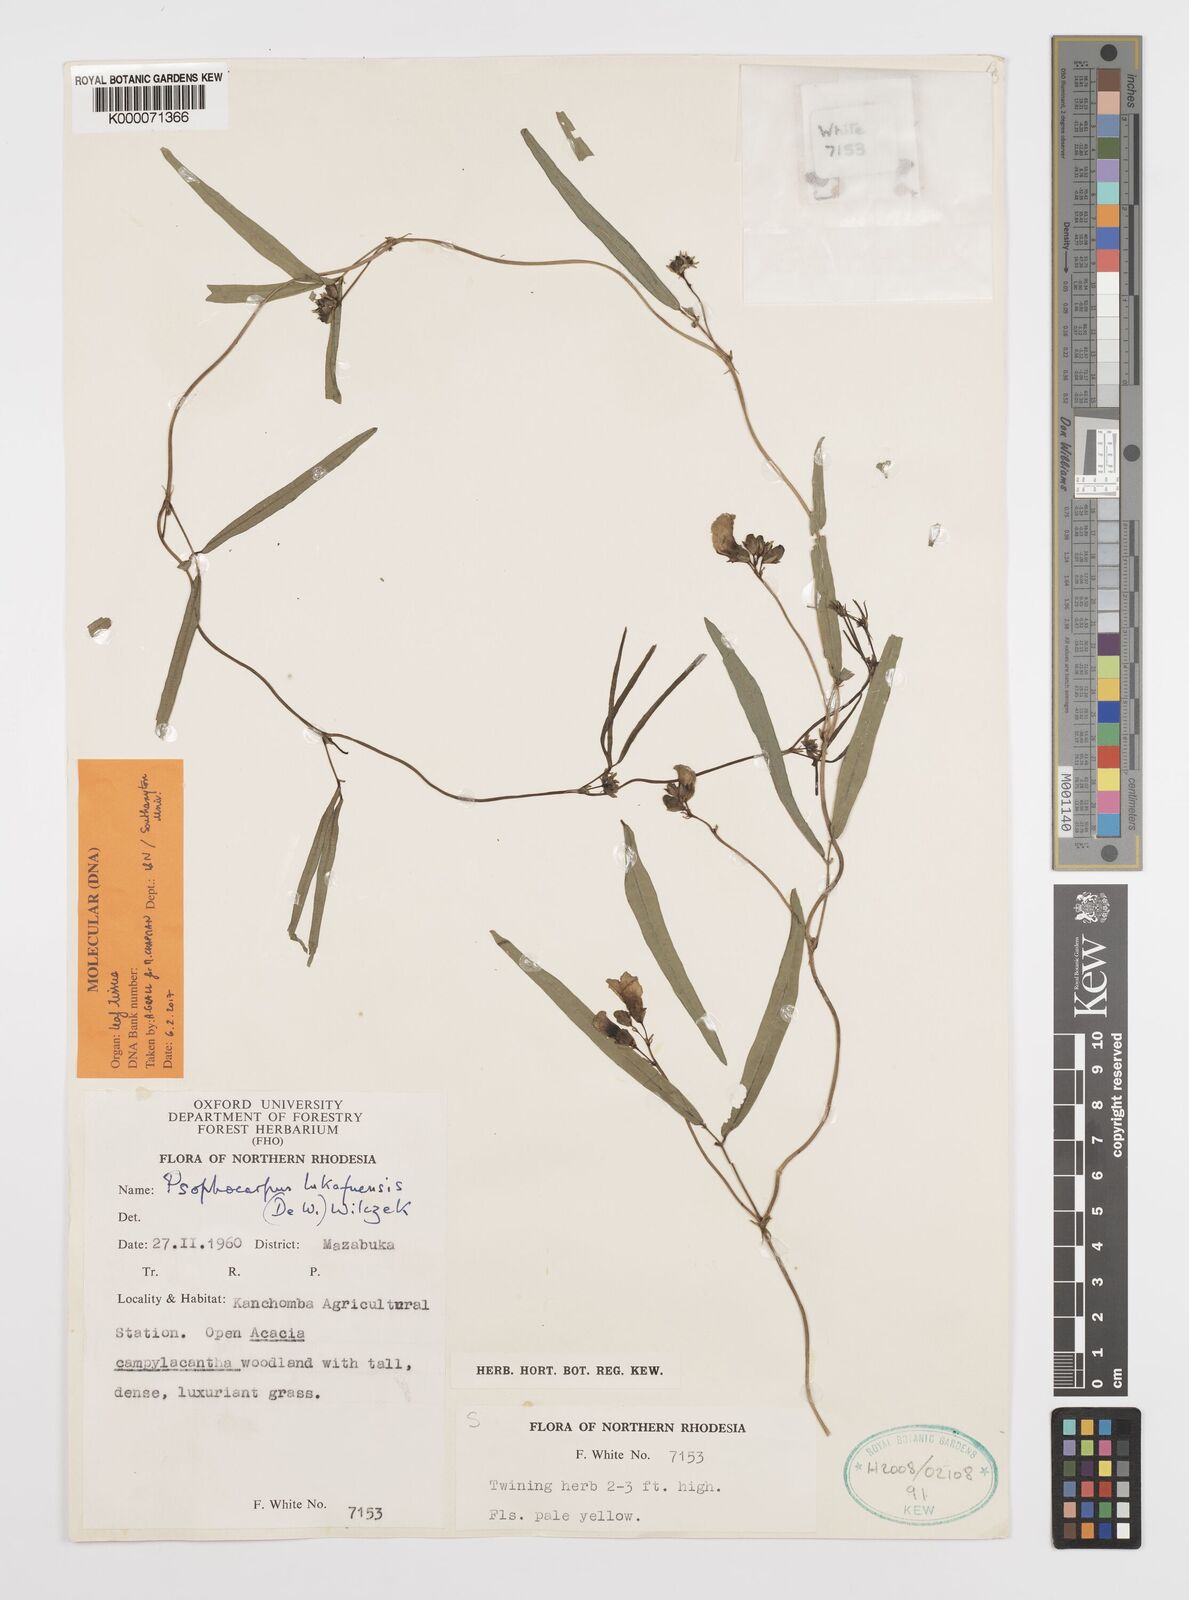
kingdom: Plantae
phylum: Tracheophyta
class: Magnoliopsida
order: Fabales
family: Fabaceae
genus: Psophocarpus
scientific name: Psophocarpus lukafuensis
